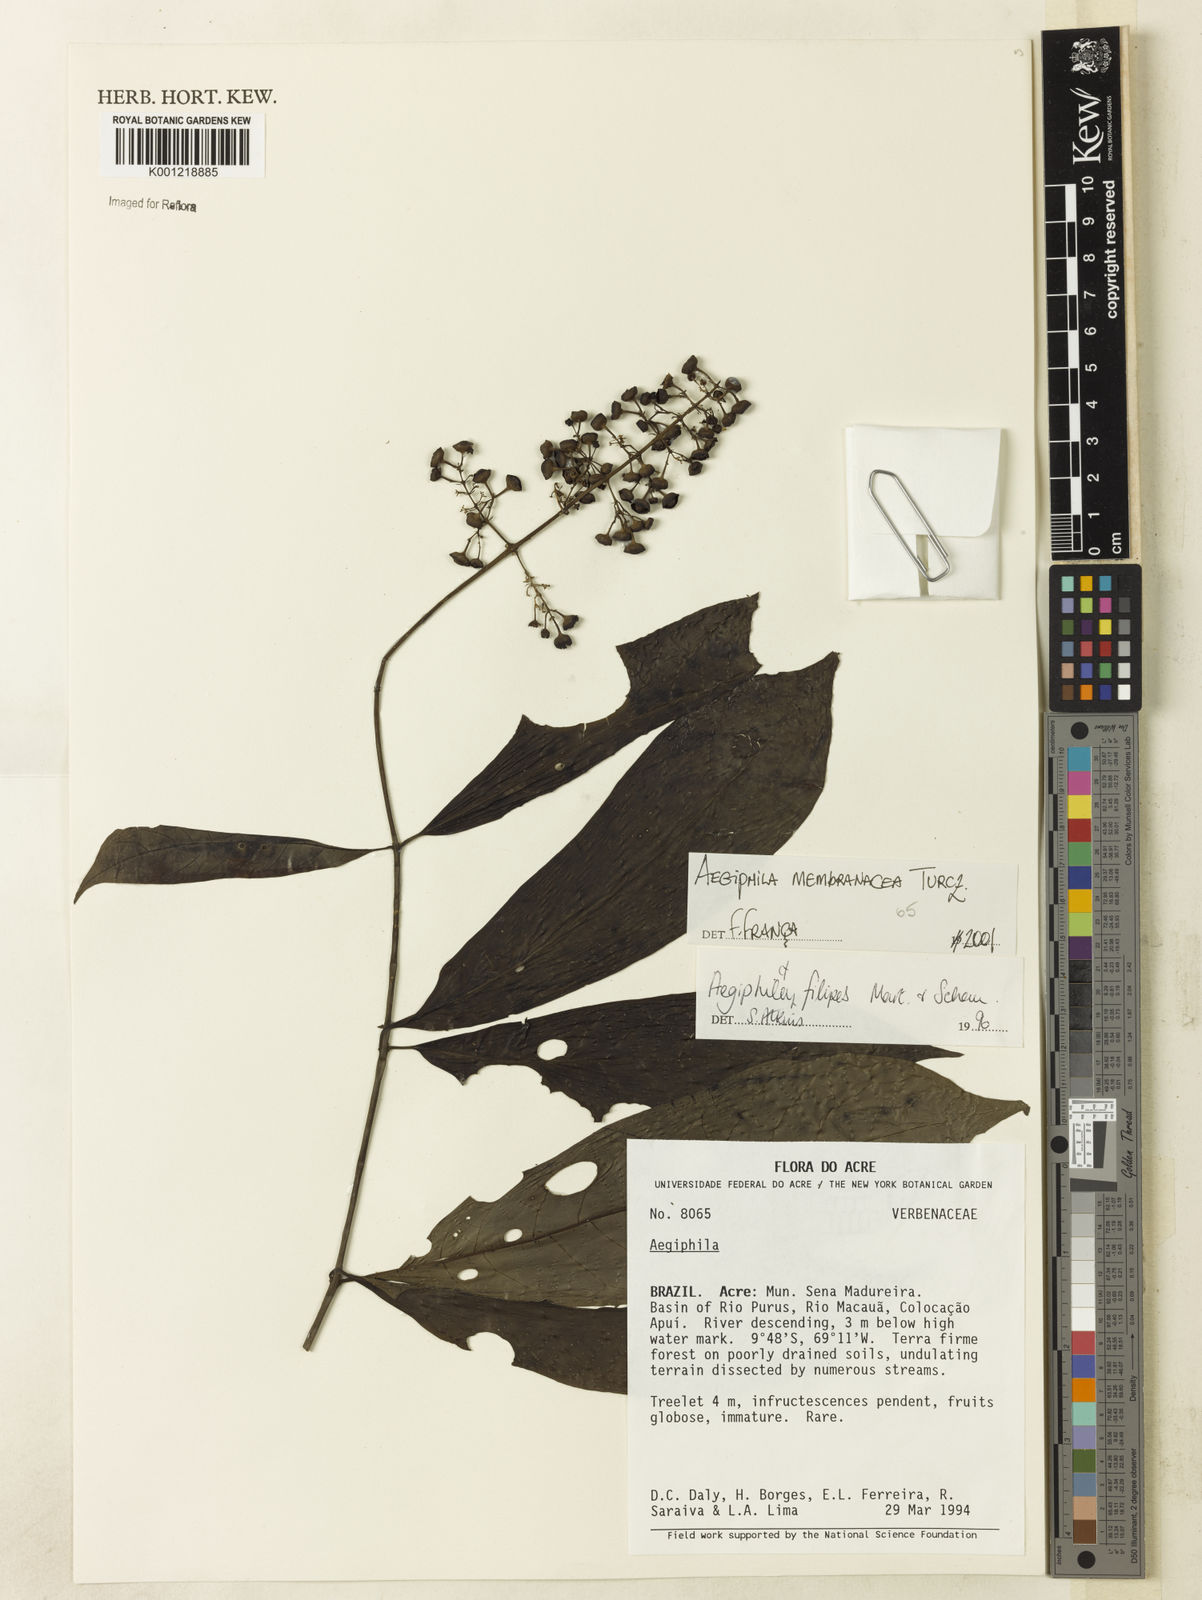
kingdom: Plantae
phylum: Tracheophyta
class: Magnoliopsida
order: Lamiales
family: Lamiaceae
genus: Aegiphila
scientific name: Aegiphila membranacea
